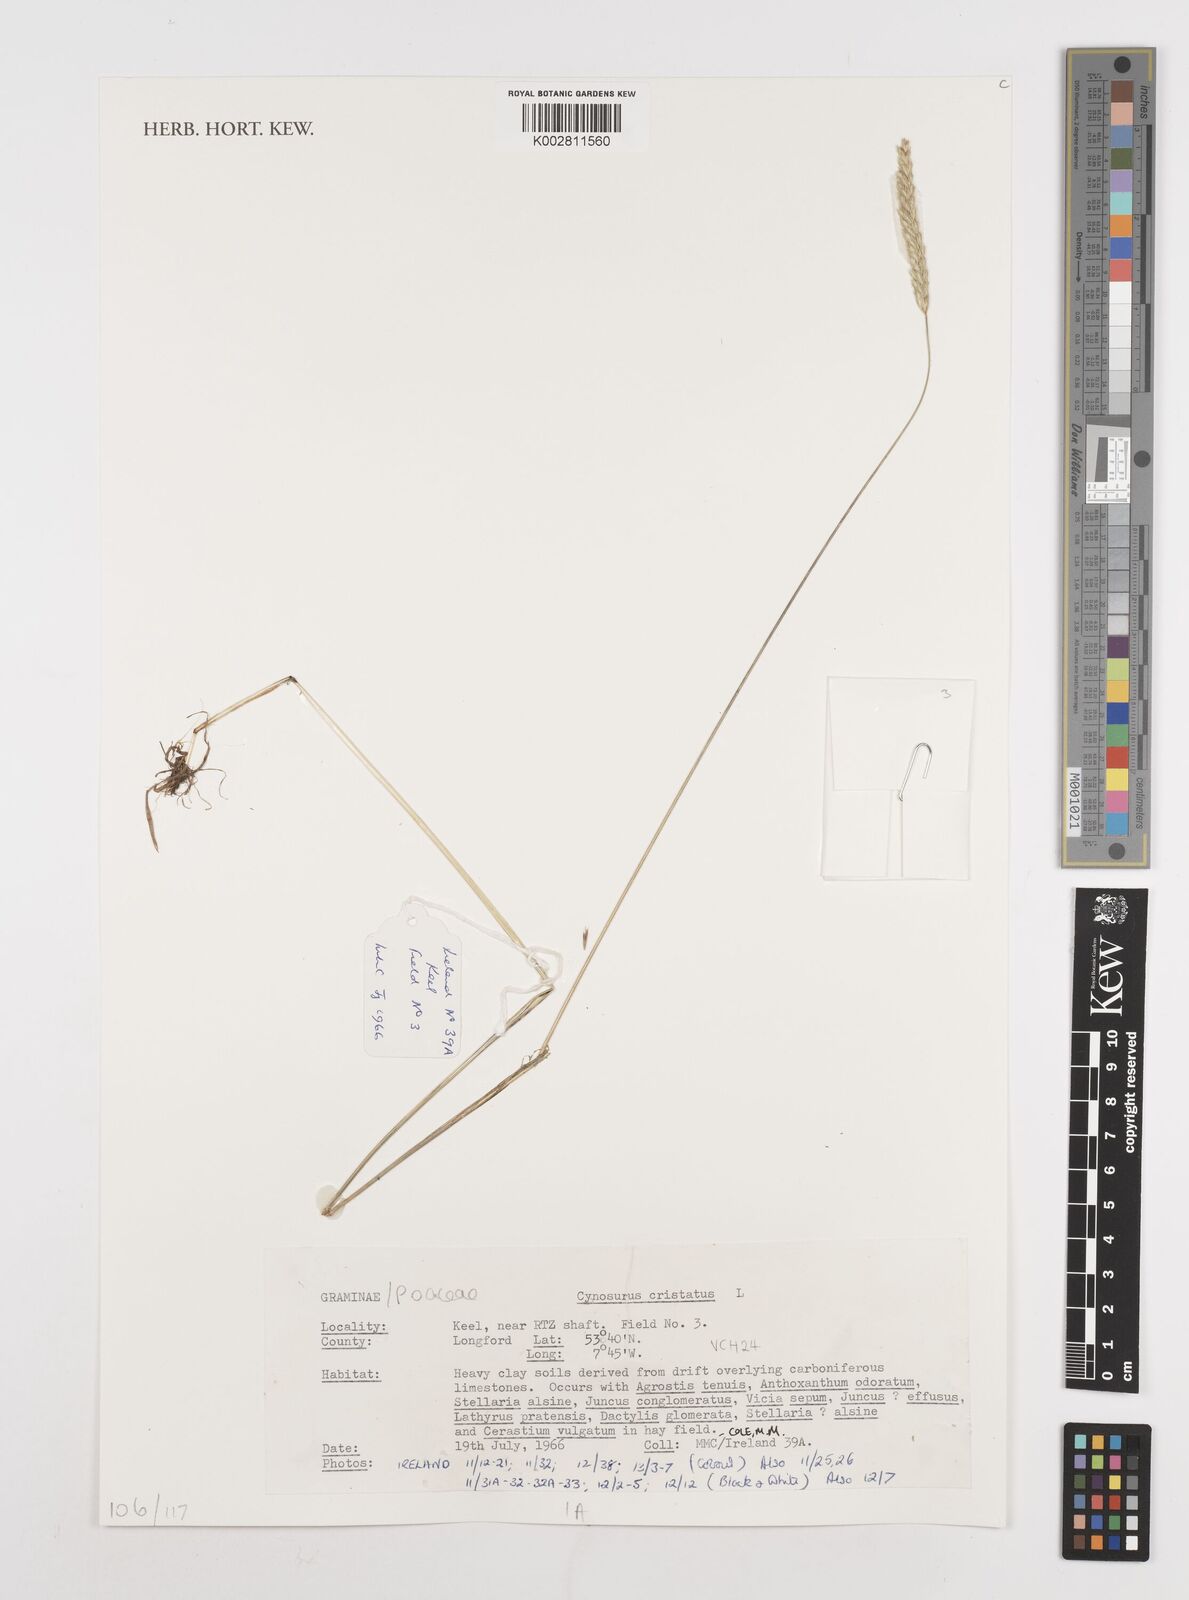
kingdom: Plantae
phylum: Tracheophyta
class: Liliopsida
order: Poales
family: Poaceae
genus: Cynosurus
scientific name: Cynosurus cristatus
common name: Crested dog's-tail
